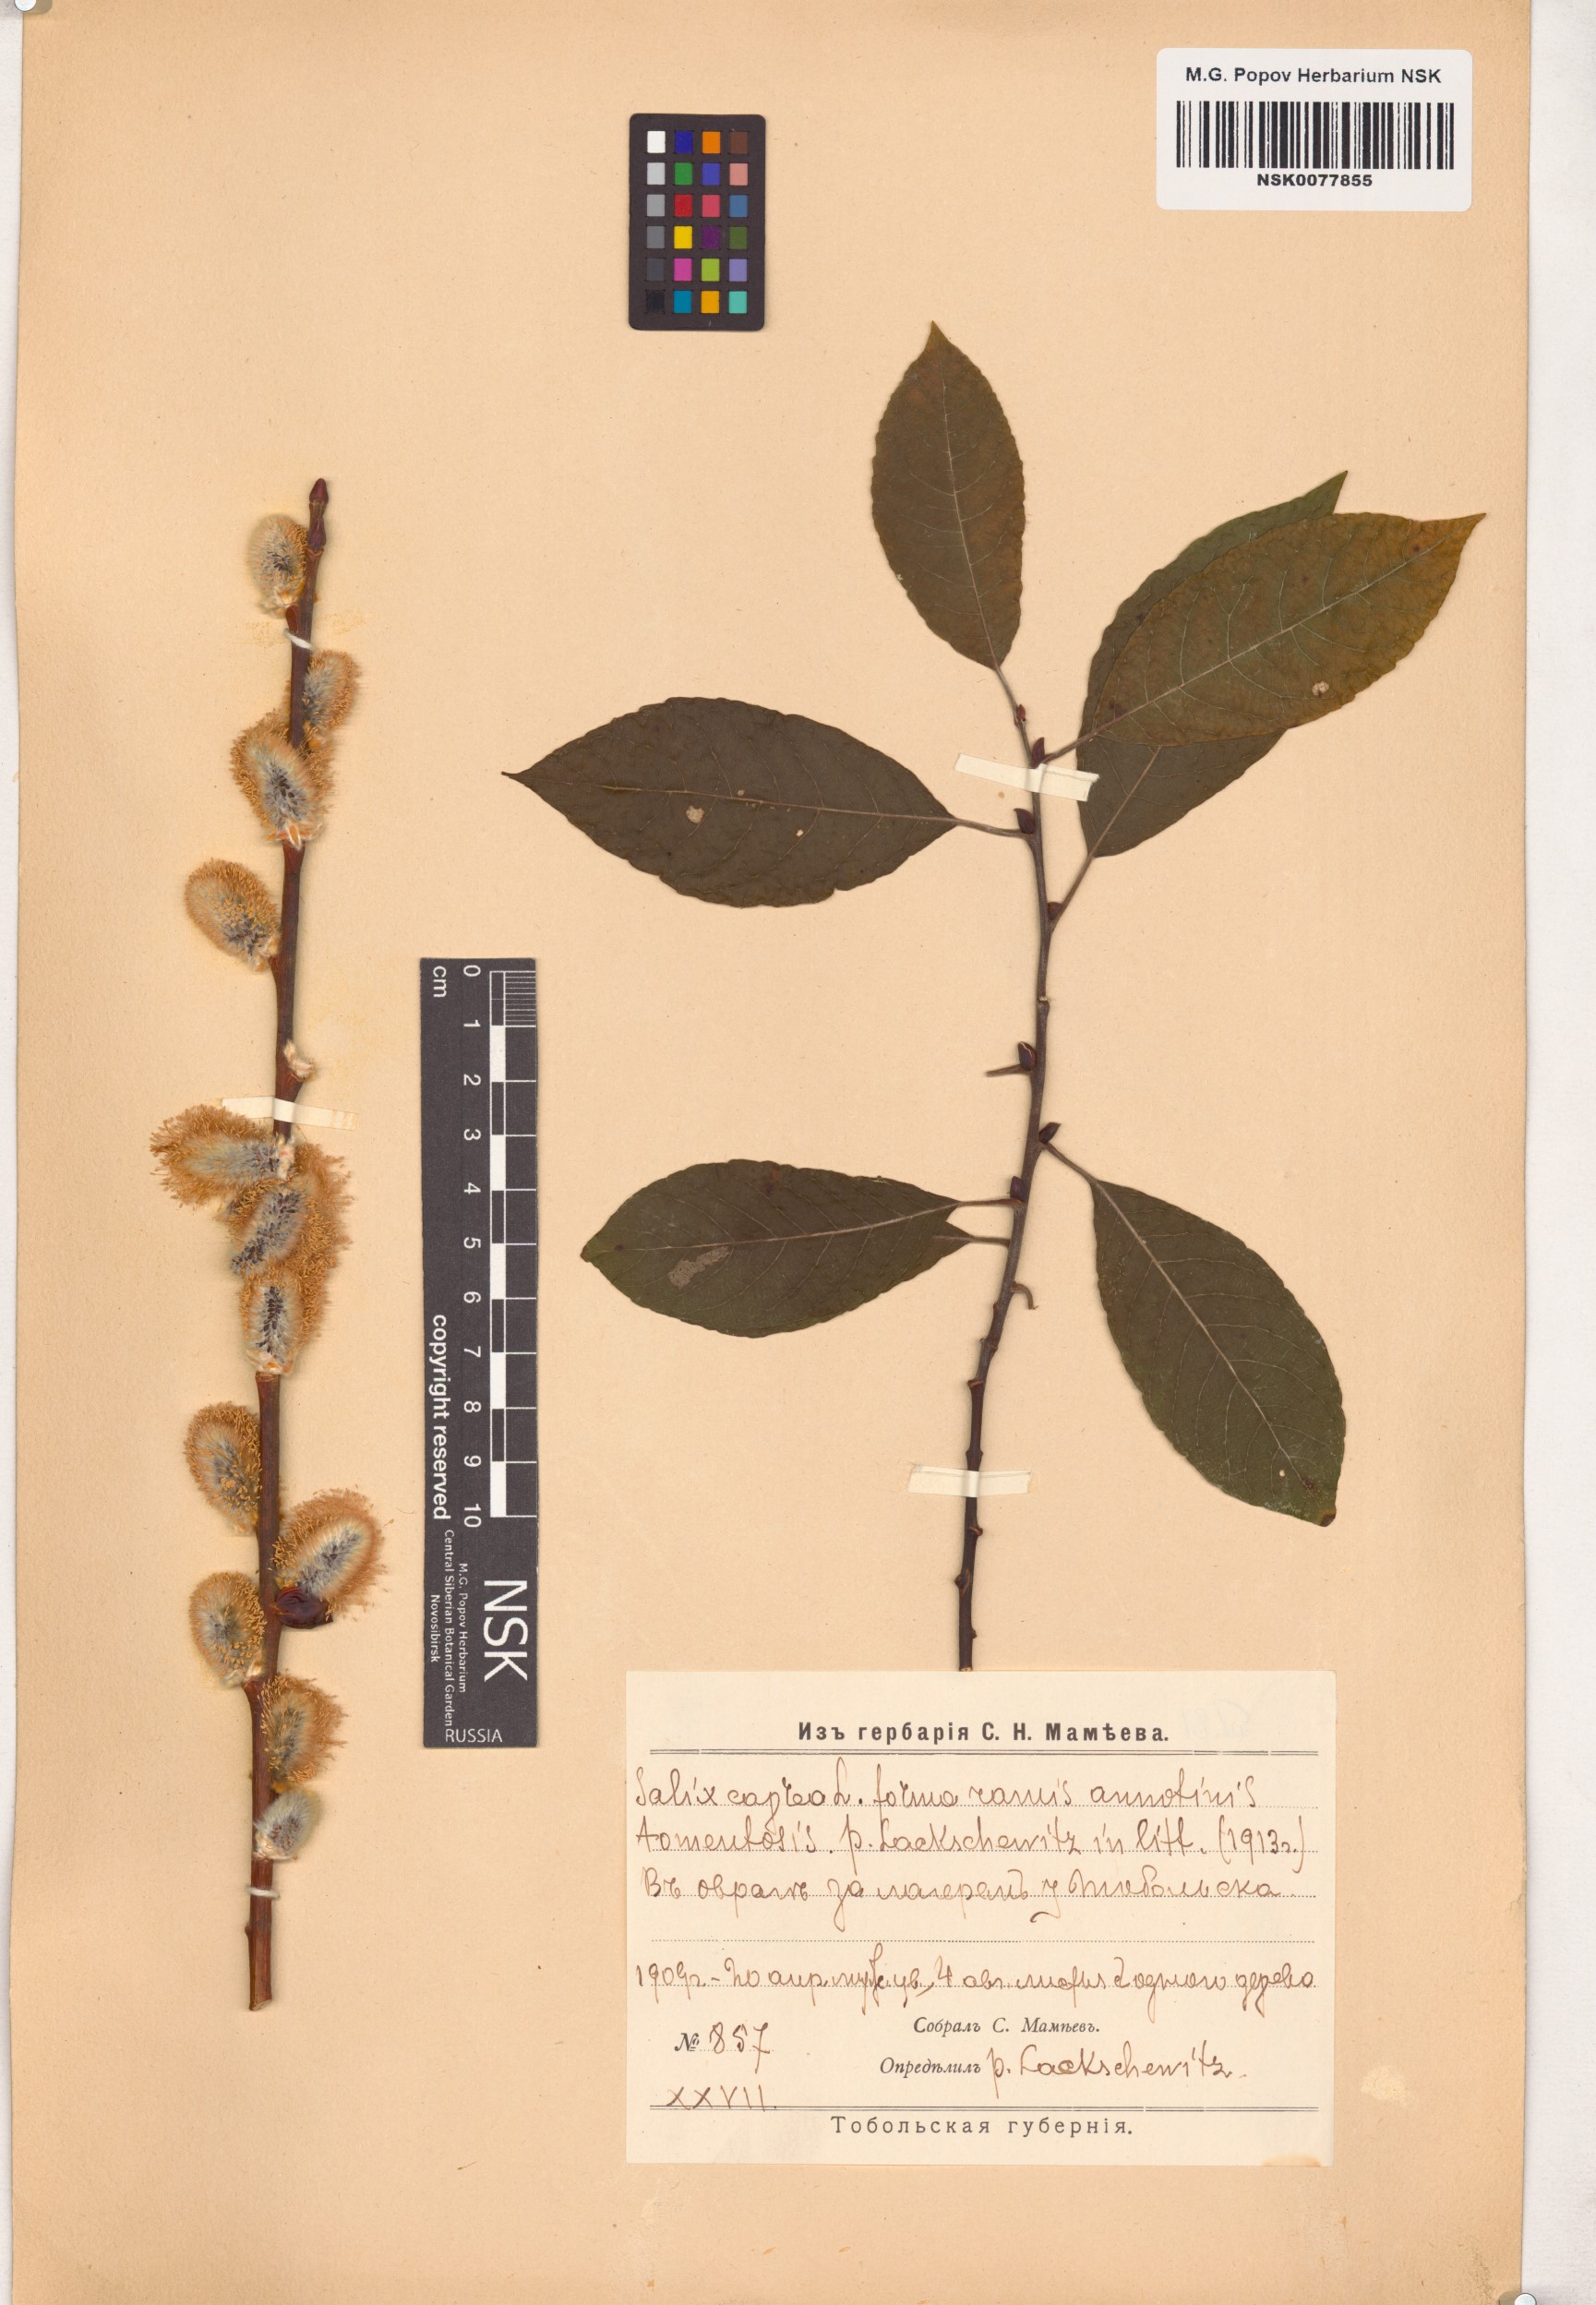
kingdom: Plantae
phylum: Tracheophyta
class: Magnoliopsida
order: Malpighiales
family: Salicaceae
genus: Salix
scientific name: Salix caprea
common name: Goat willow
